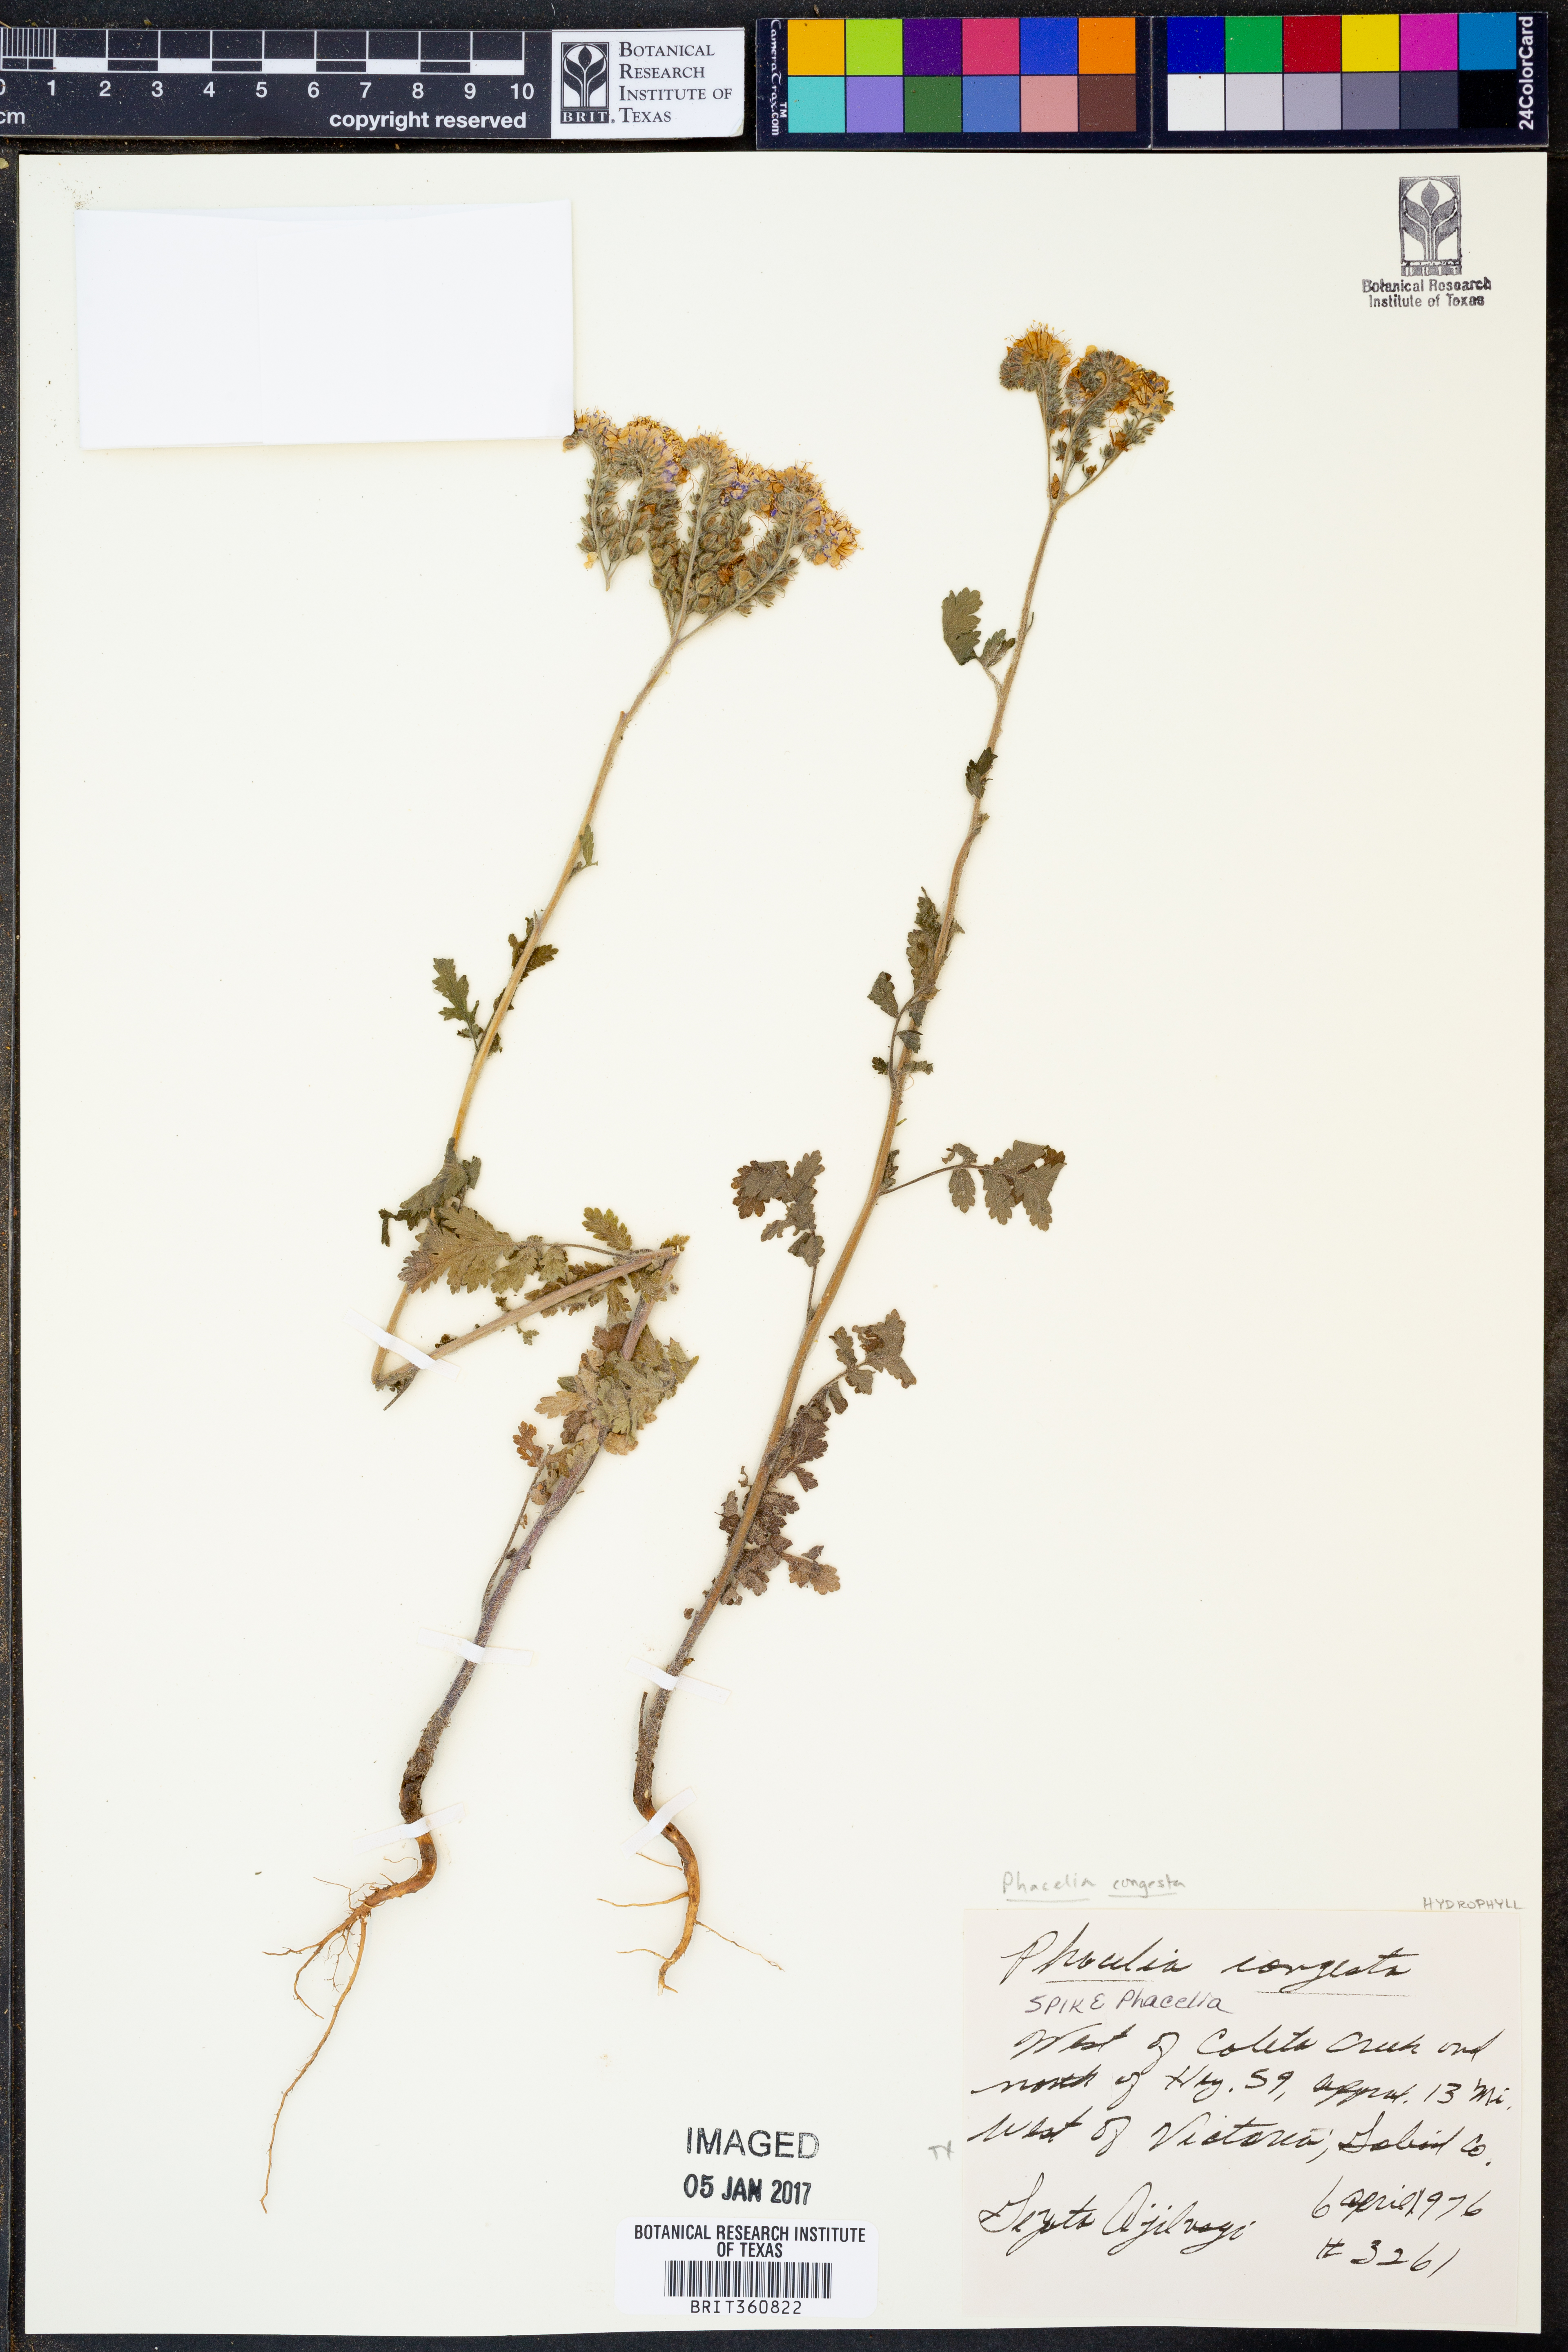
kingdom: Plantae
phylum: Tracheophyta
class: Magnoliopsida
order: Boraginales
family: Hydrophyllaceae
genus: Phacelia
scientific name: Phacelia congesta
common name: Blue curls
